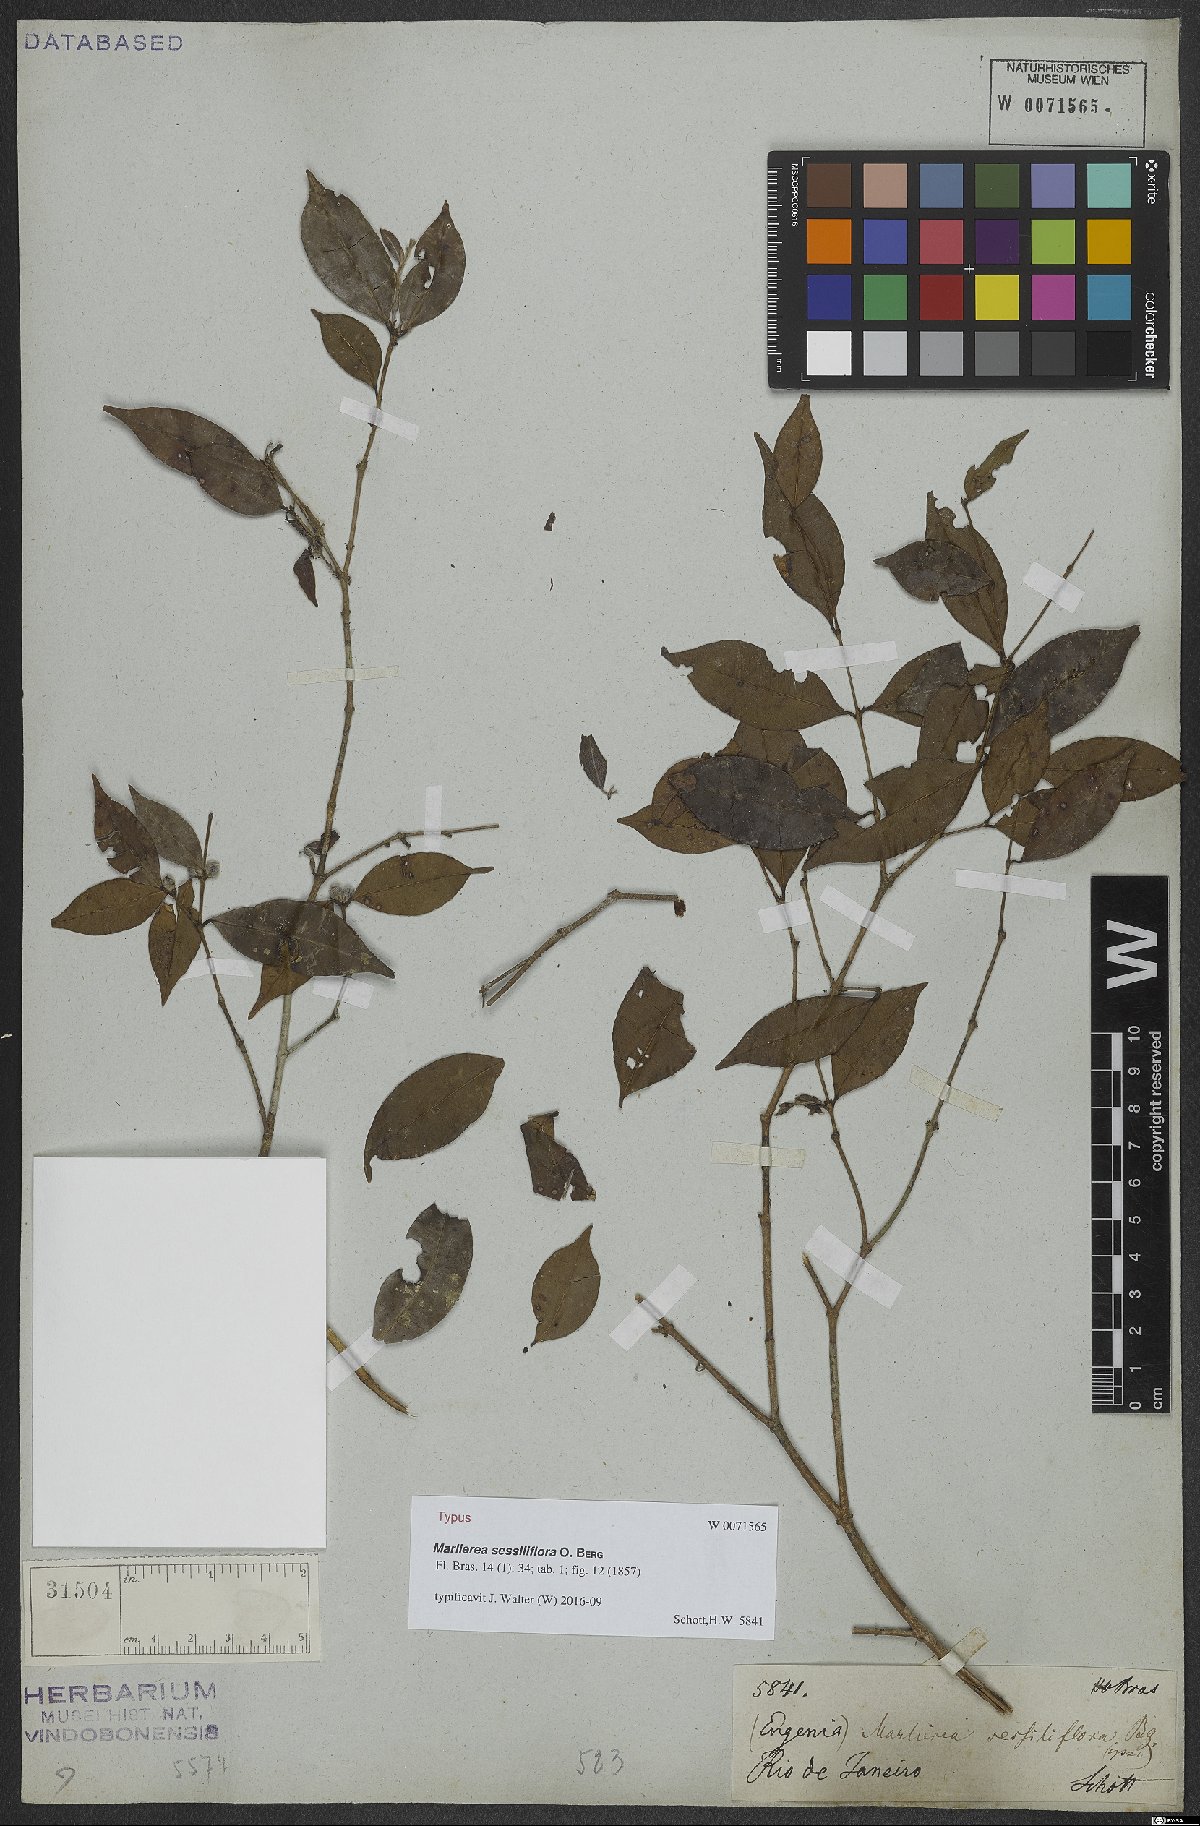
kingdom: Plantae
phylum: Tracheophyta
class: Magnoliopsida
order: Myrtales
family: Myrtaceae
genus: Plinia
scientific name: Plinia sessiliflora
